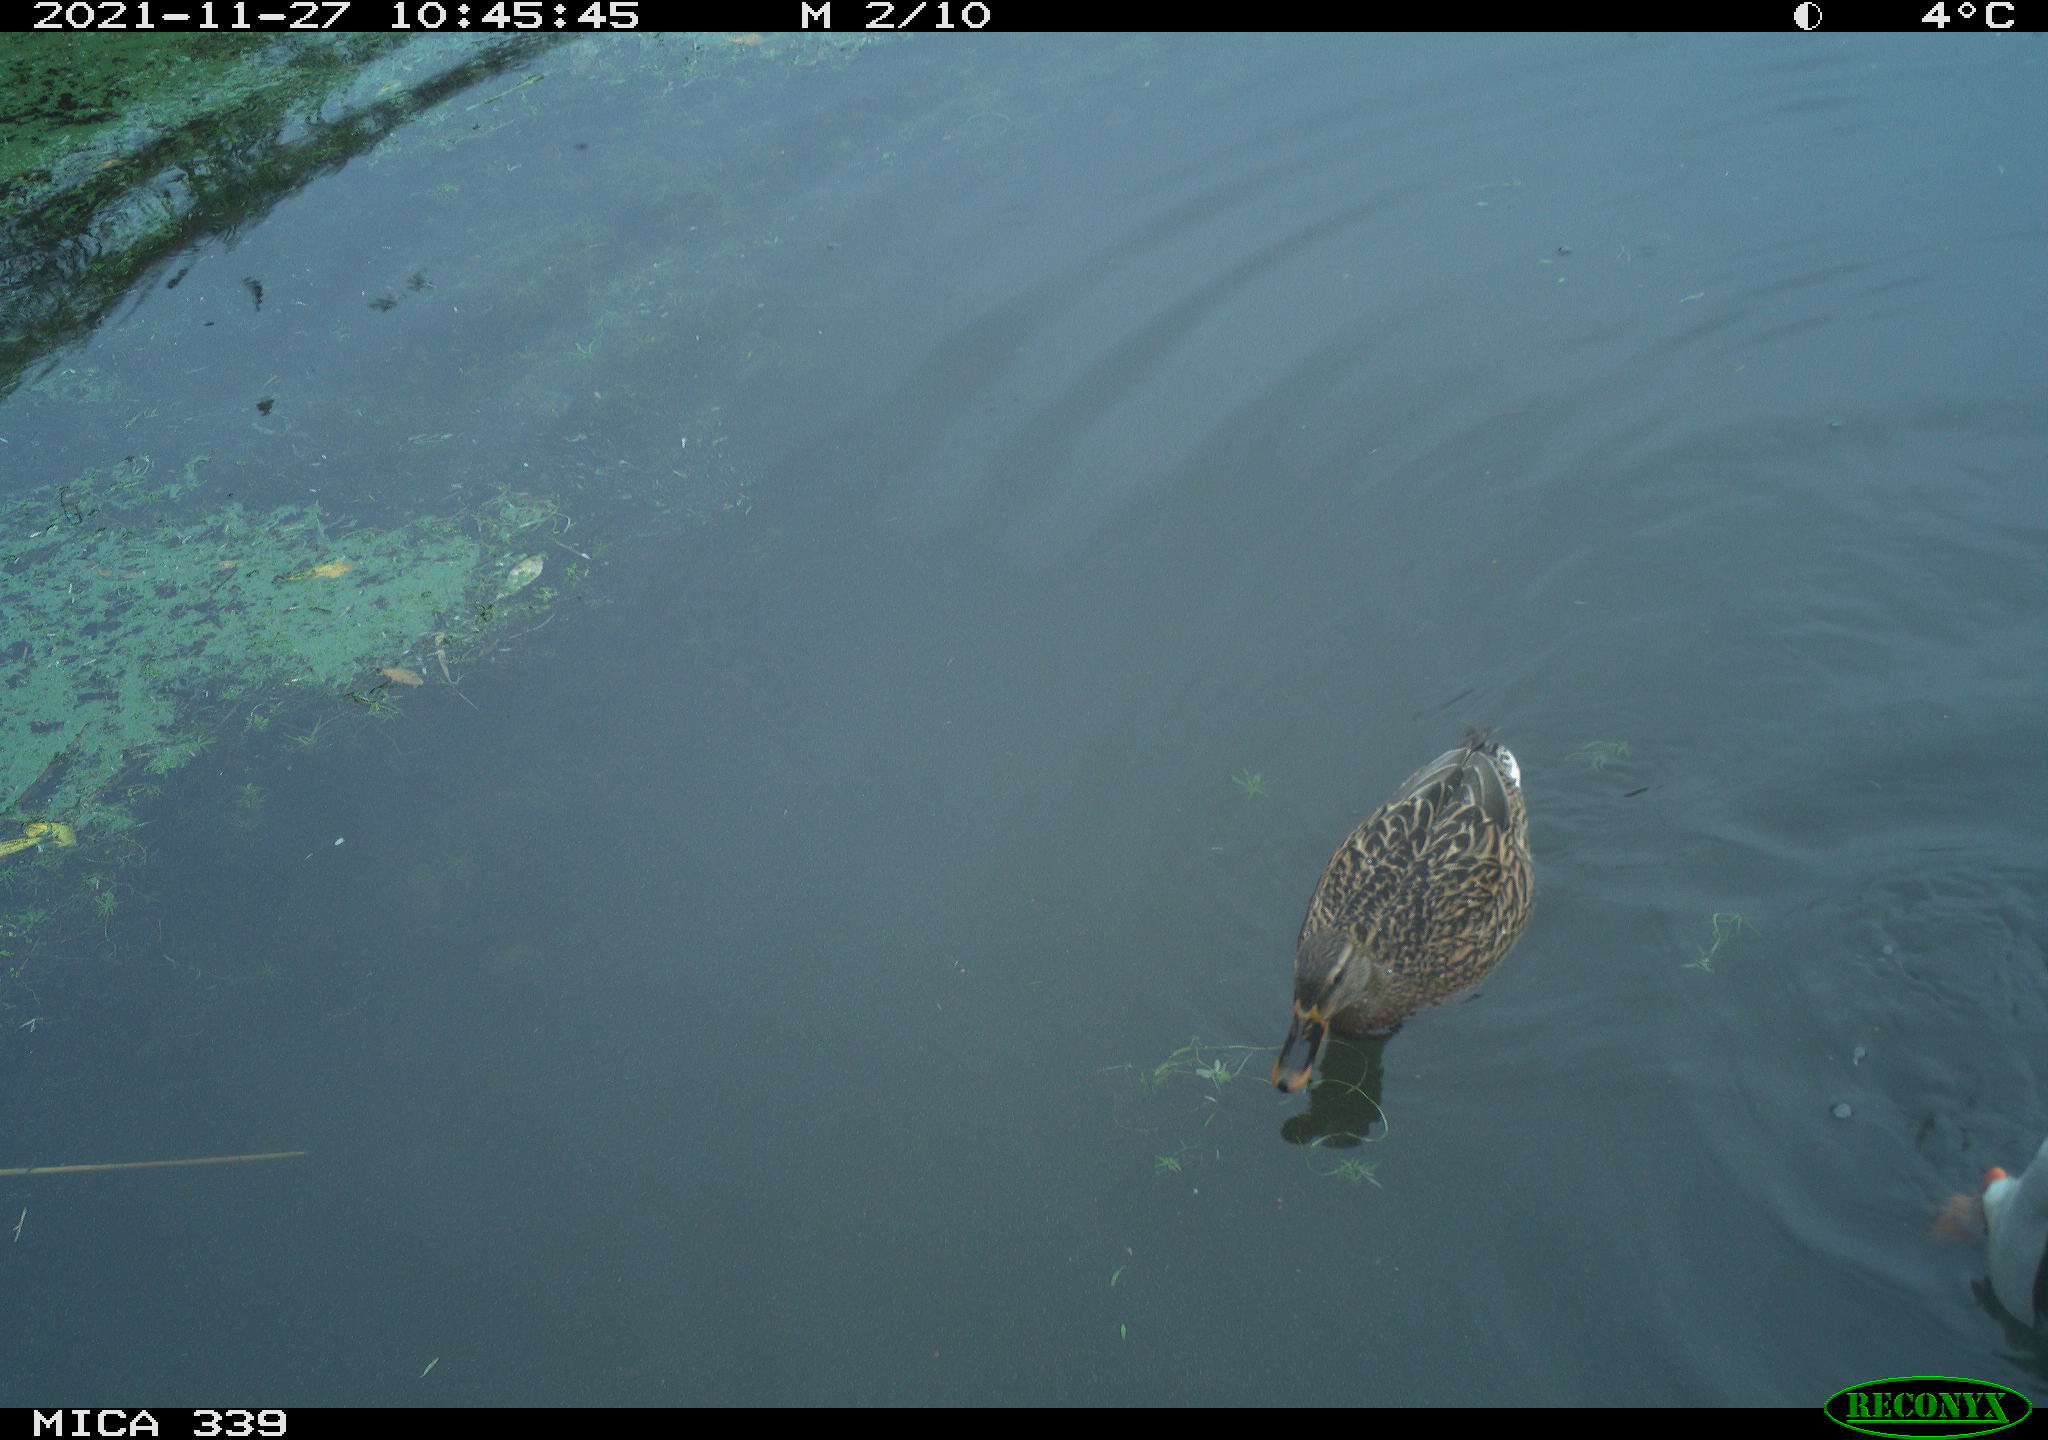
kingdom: Animalia
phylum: Chordata
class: Aves
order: Anseriformes
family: Anatidae
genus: Anas
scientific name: Anas platyrhynchos
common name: Mallard
